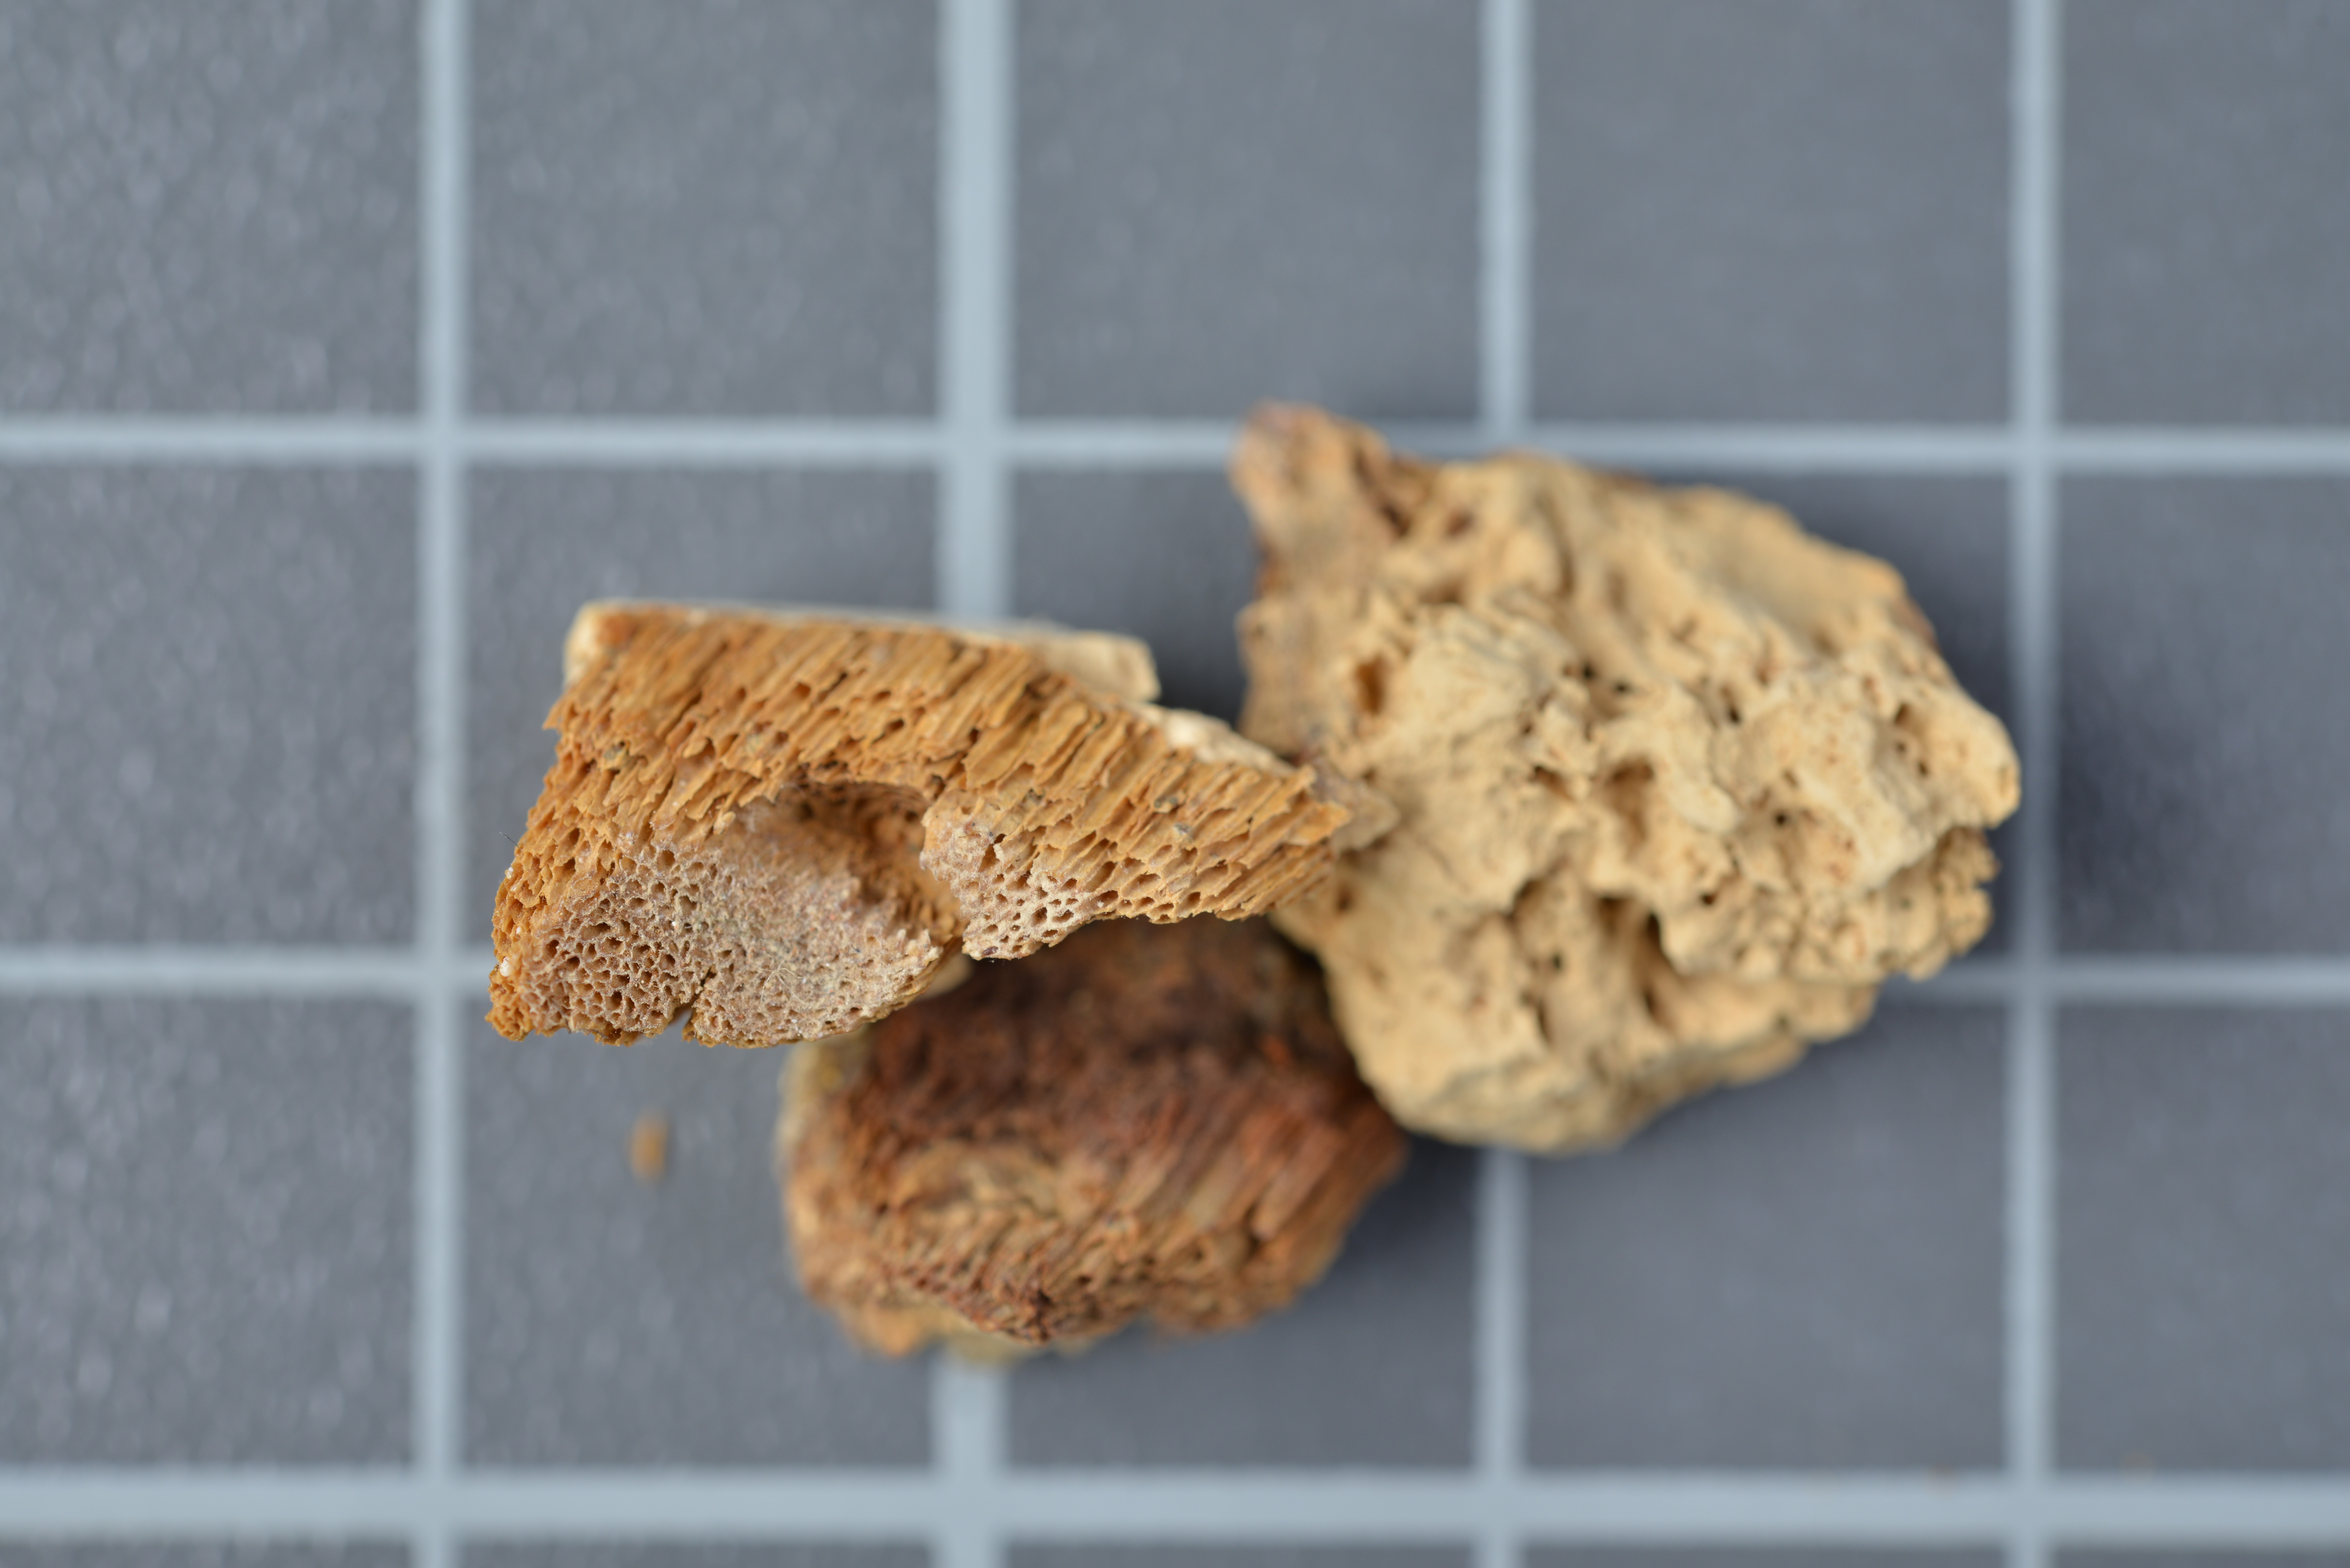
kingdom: Fungi
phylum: Basidiomycota
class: Agaricomycetes
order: Polyporales
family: Polyporaceae
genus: Pseudopiptoporus
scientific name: Pseudopiptoporus devians
